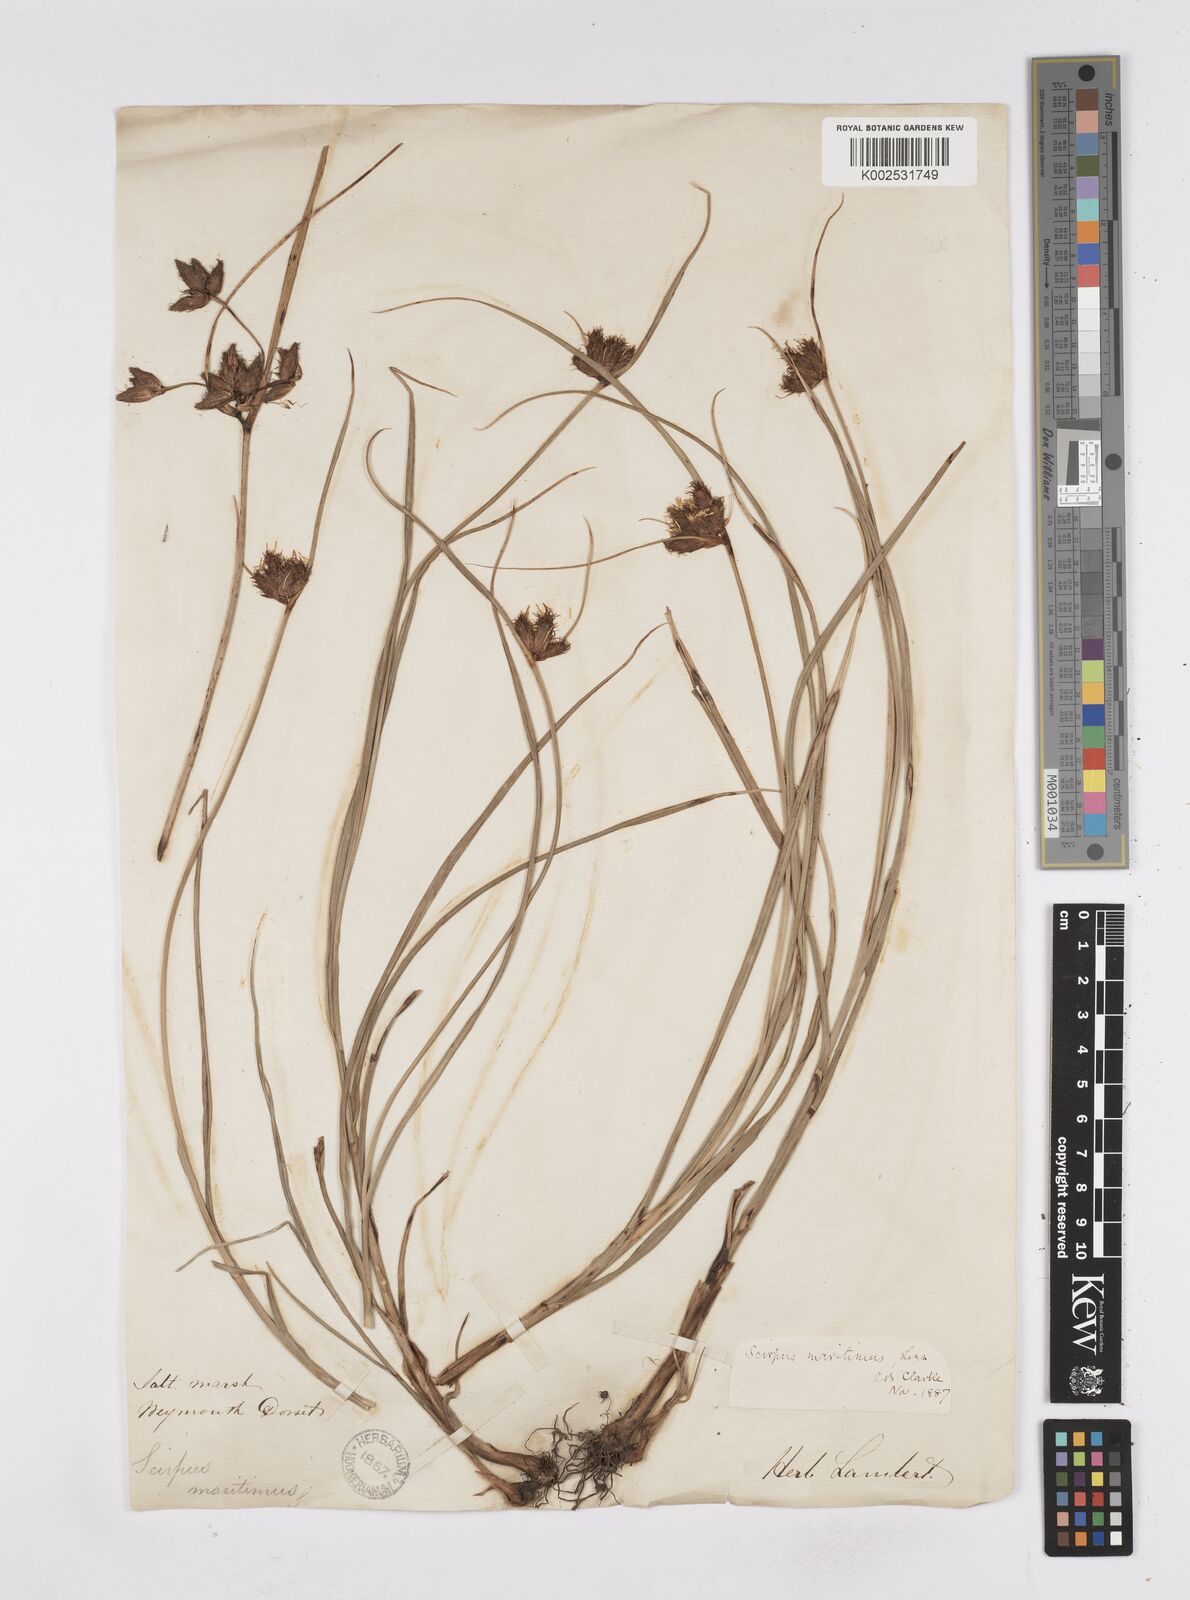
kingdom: Plantae
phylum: Tracheophyta
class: Liliopsida
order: Poales
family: Cyperaceae
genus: Bolboschoenus
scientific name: Bolboschoenus maritimus
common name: Sea club-rush
